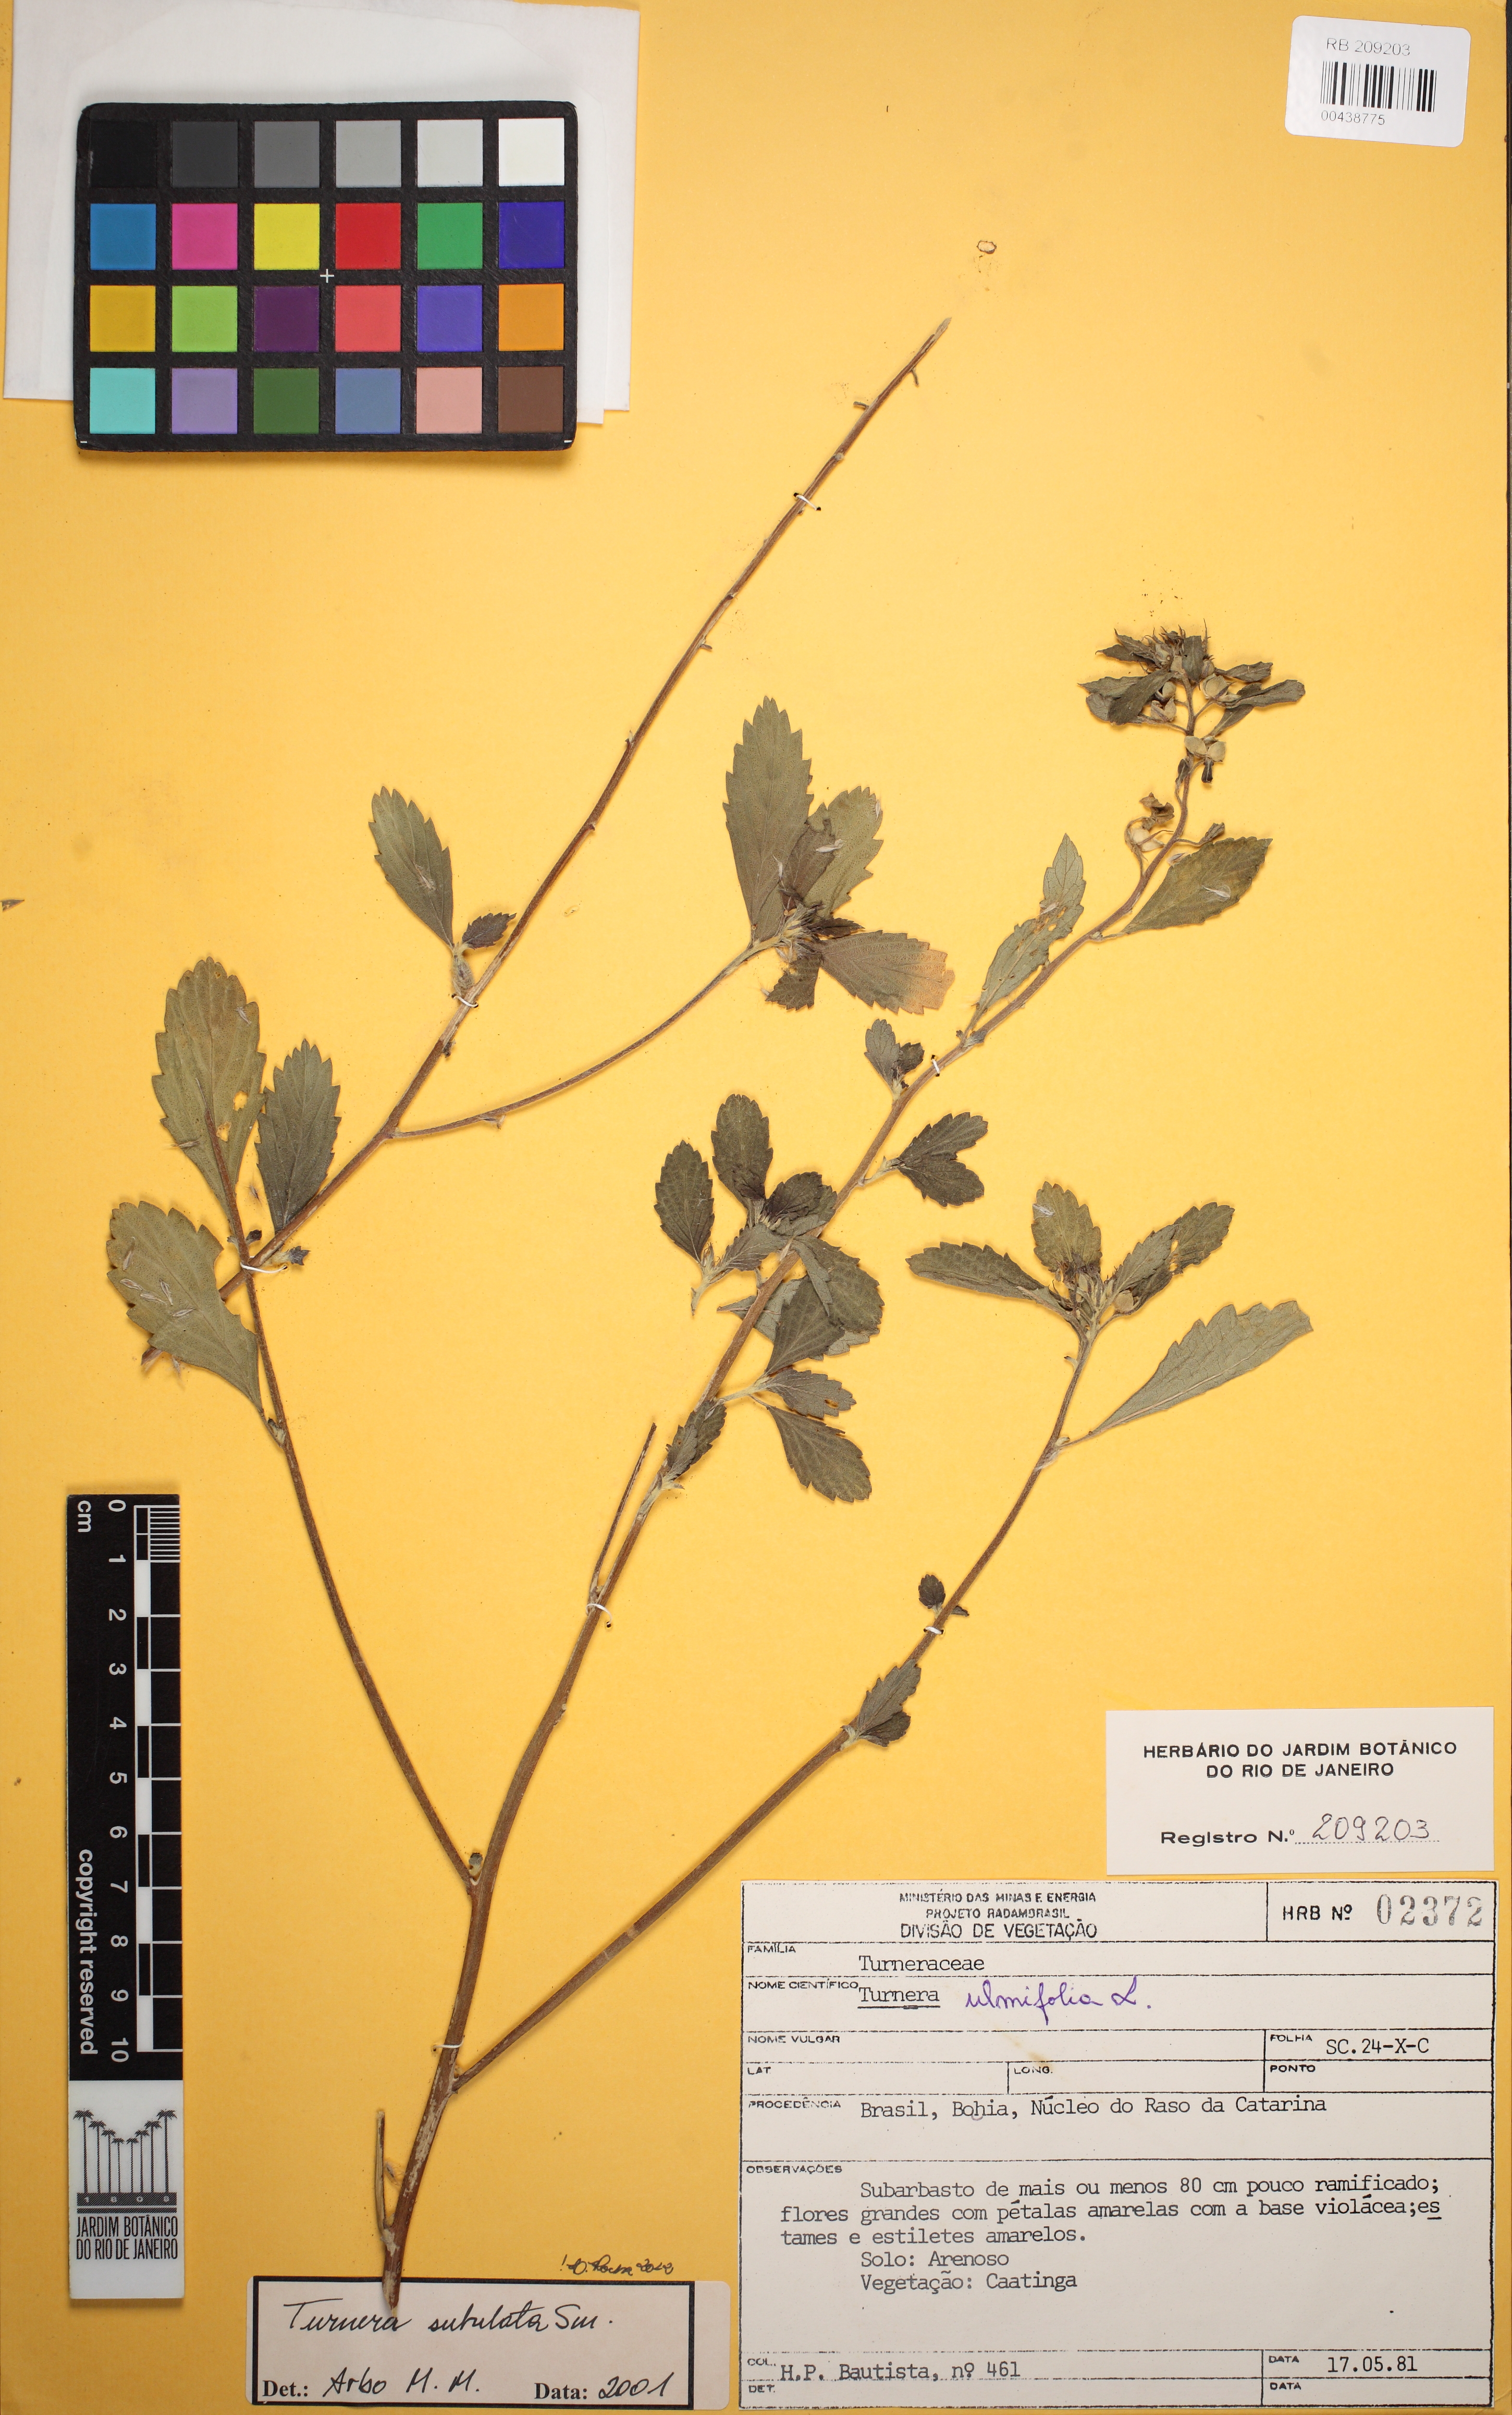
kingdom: Plantae
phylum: Tracheophyta
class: Magnoliopsida
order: Malpighiales
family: Turneraceae
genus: Turnera
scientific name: Turnera subulata
